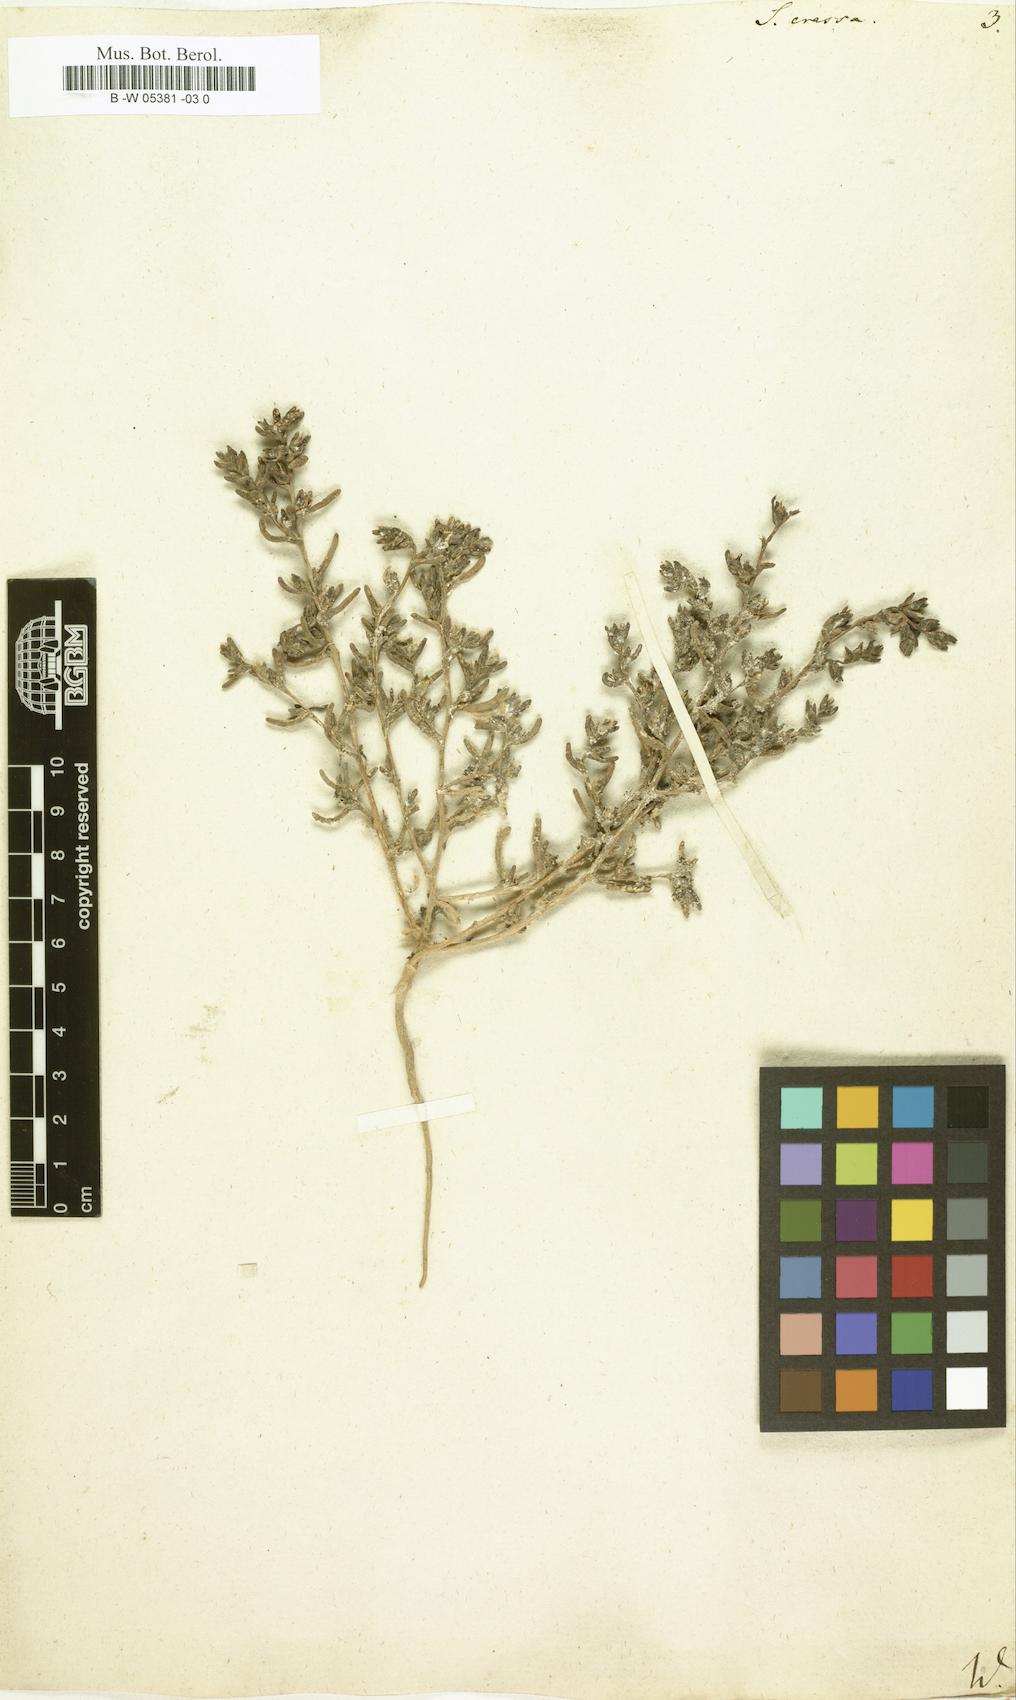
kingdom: Plantae
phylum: Tracheophyta
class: Magnoliopsida
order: Caryophyllales
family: Amaranthaceae
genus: Climacoptera
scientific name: Climacoptera crassa
